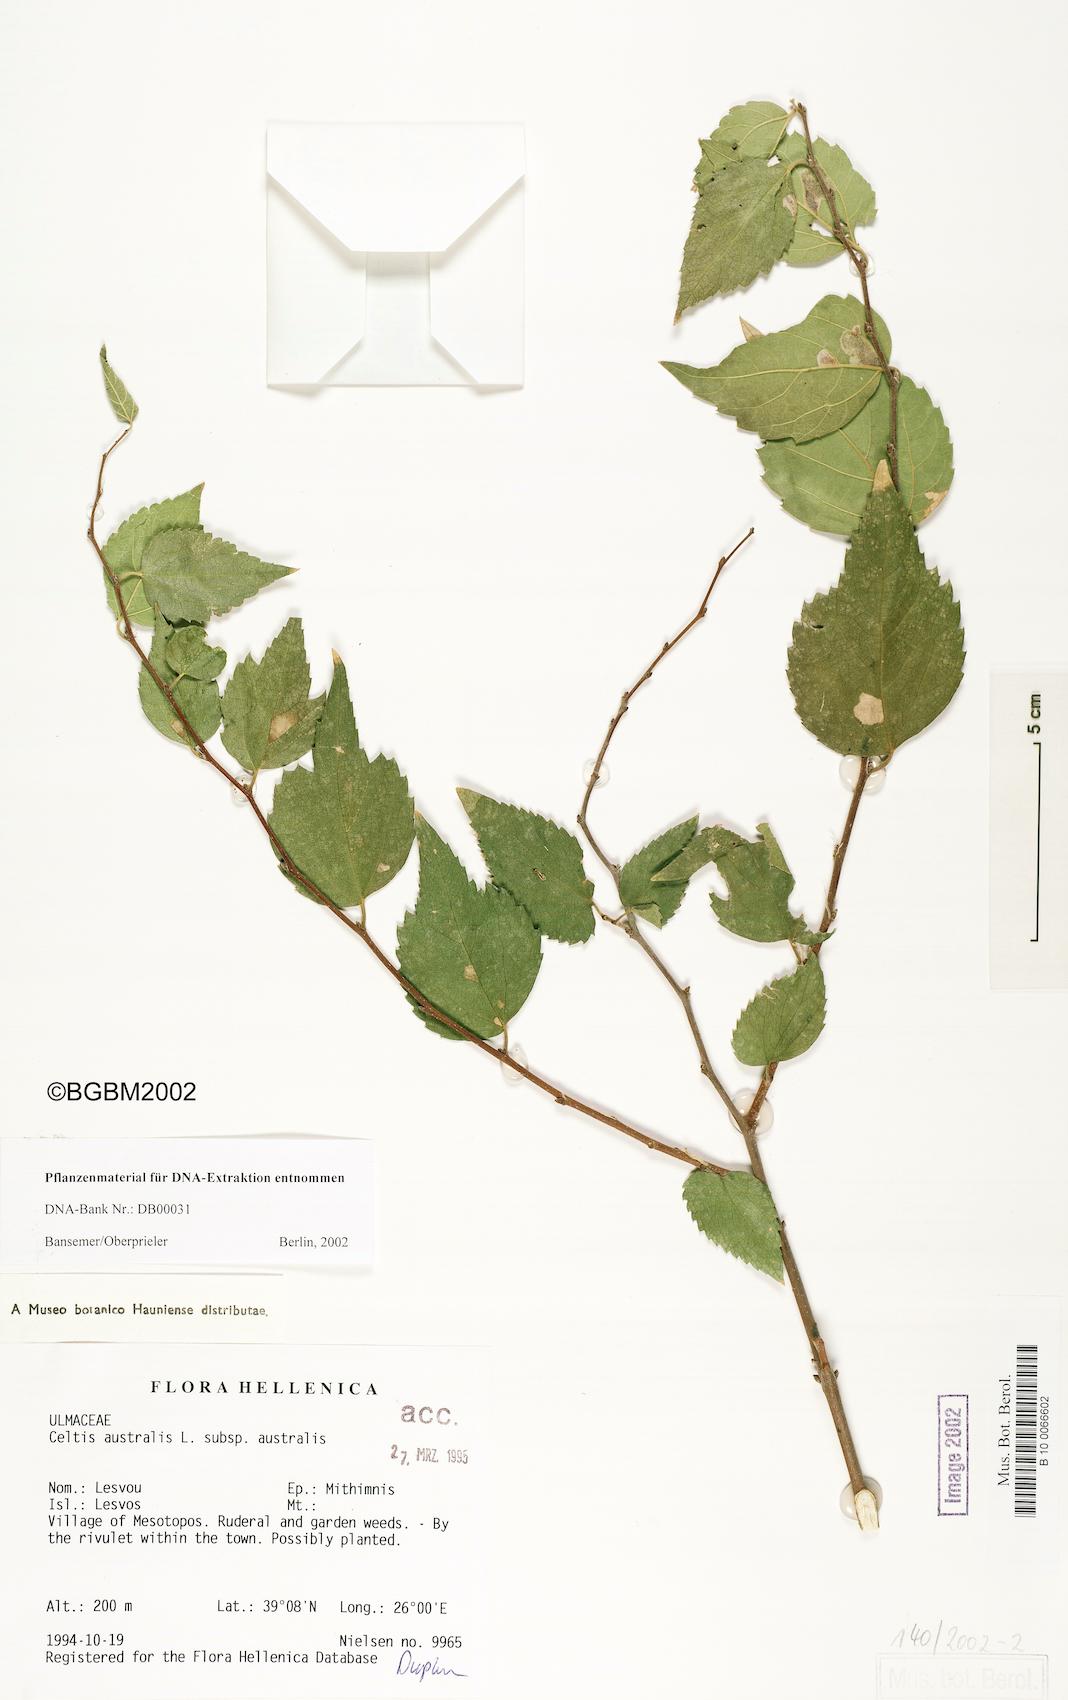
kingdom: Plantae
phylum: Tracheophyta
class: Magnoliopsida
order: Rosales
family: Cannabaceae
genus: Celtis
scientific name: Celtis australis
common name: European hackberry
